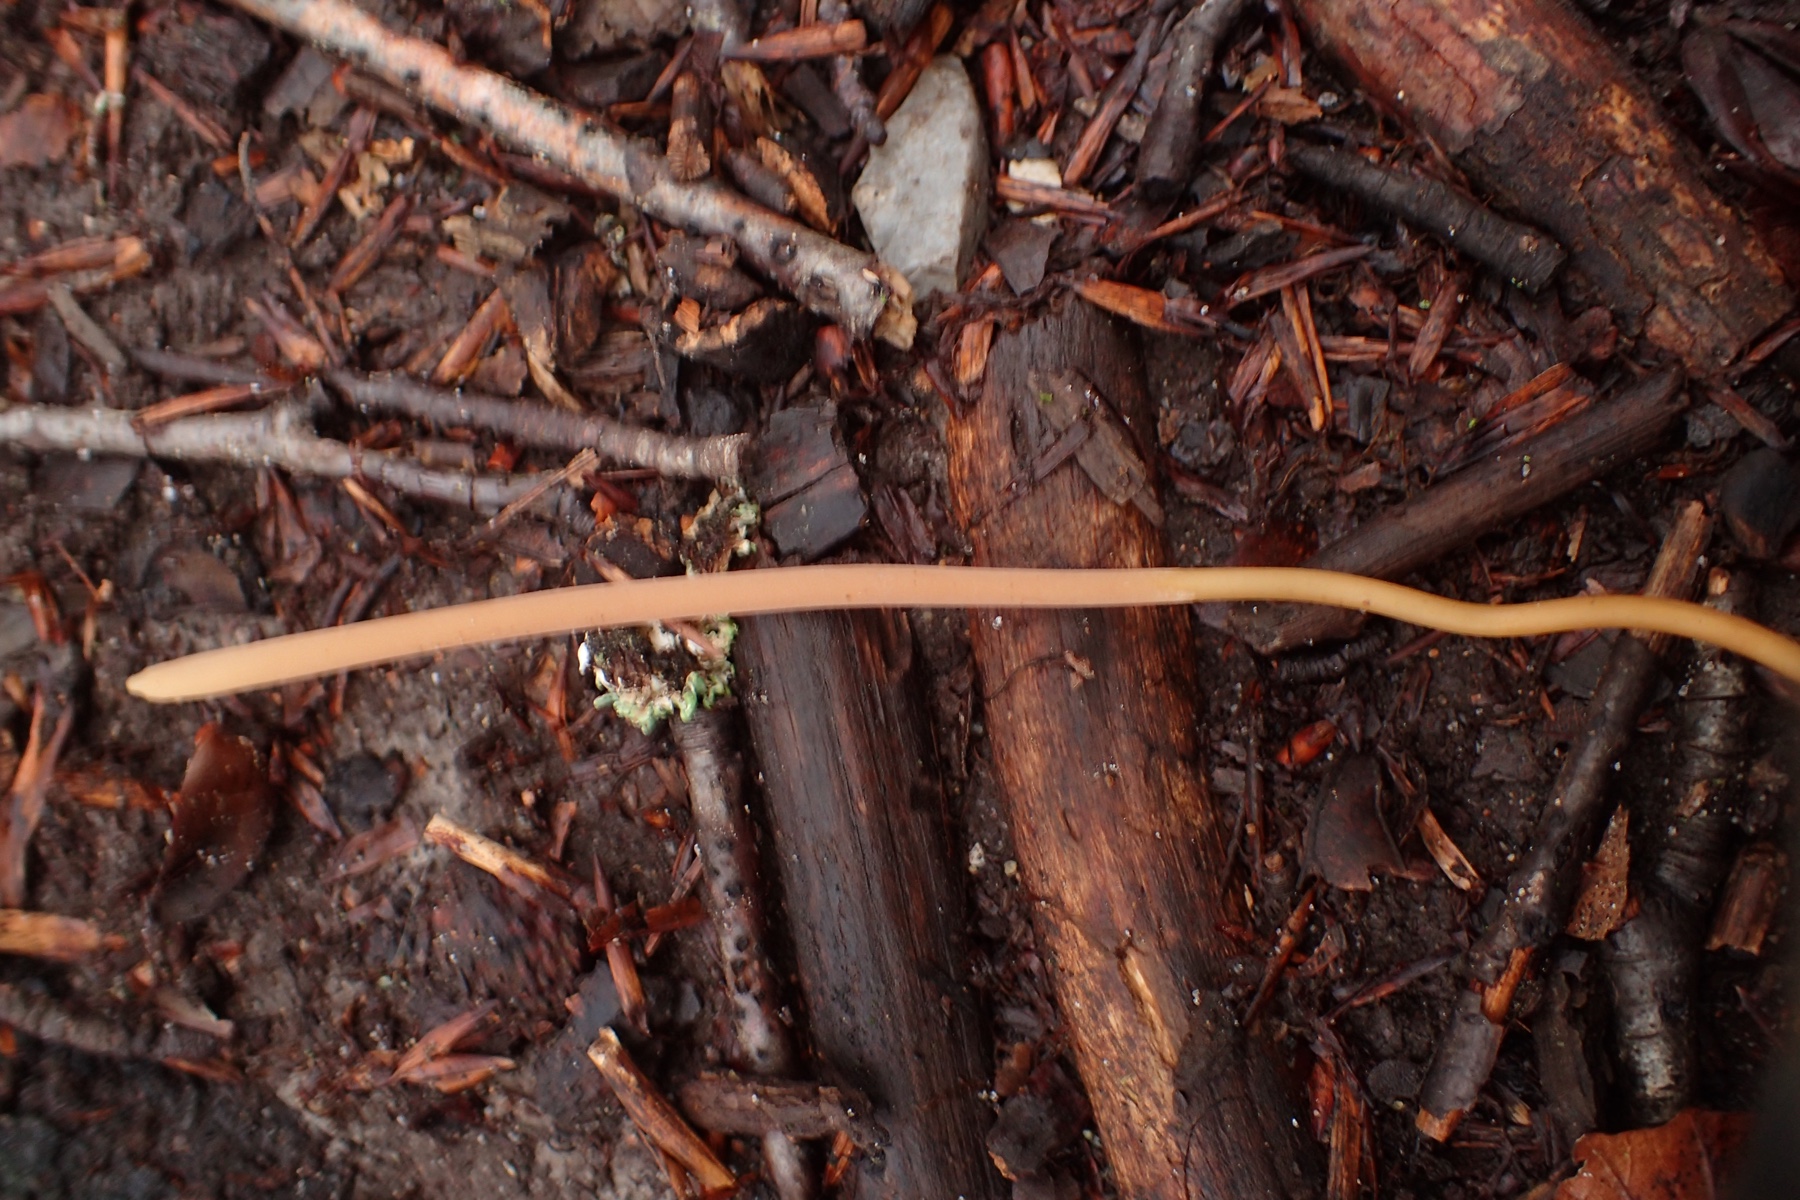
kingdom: Fungi
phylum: Basidiomycota
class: Agaricomycetes
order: Agaricales
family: Typhulaceae
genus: Typhula
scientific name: Typhula fistulosa
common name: pibet rørkølle
